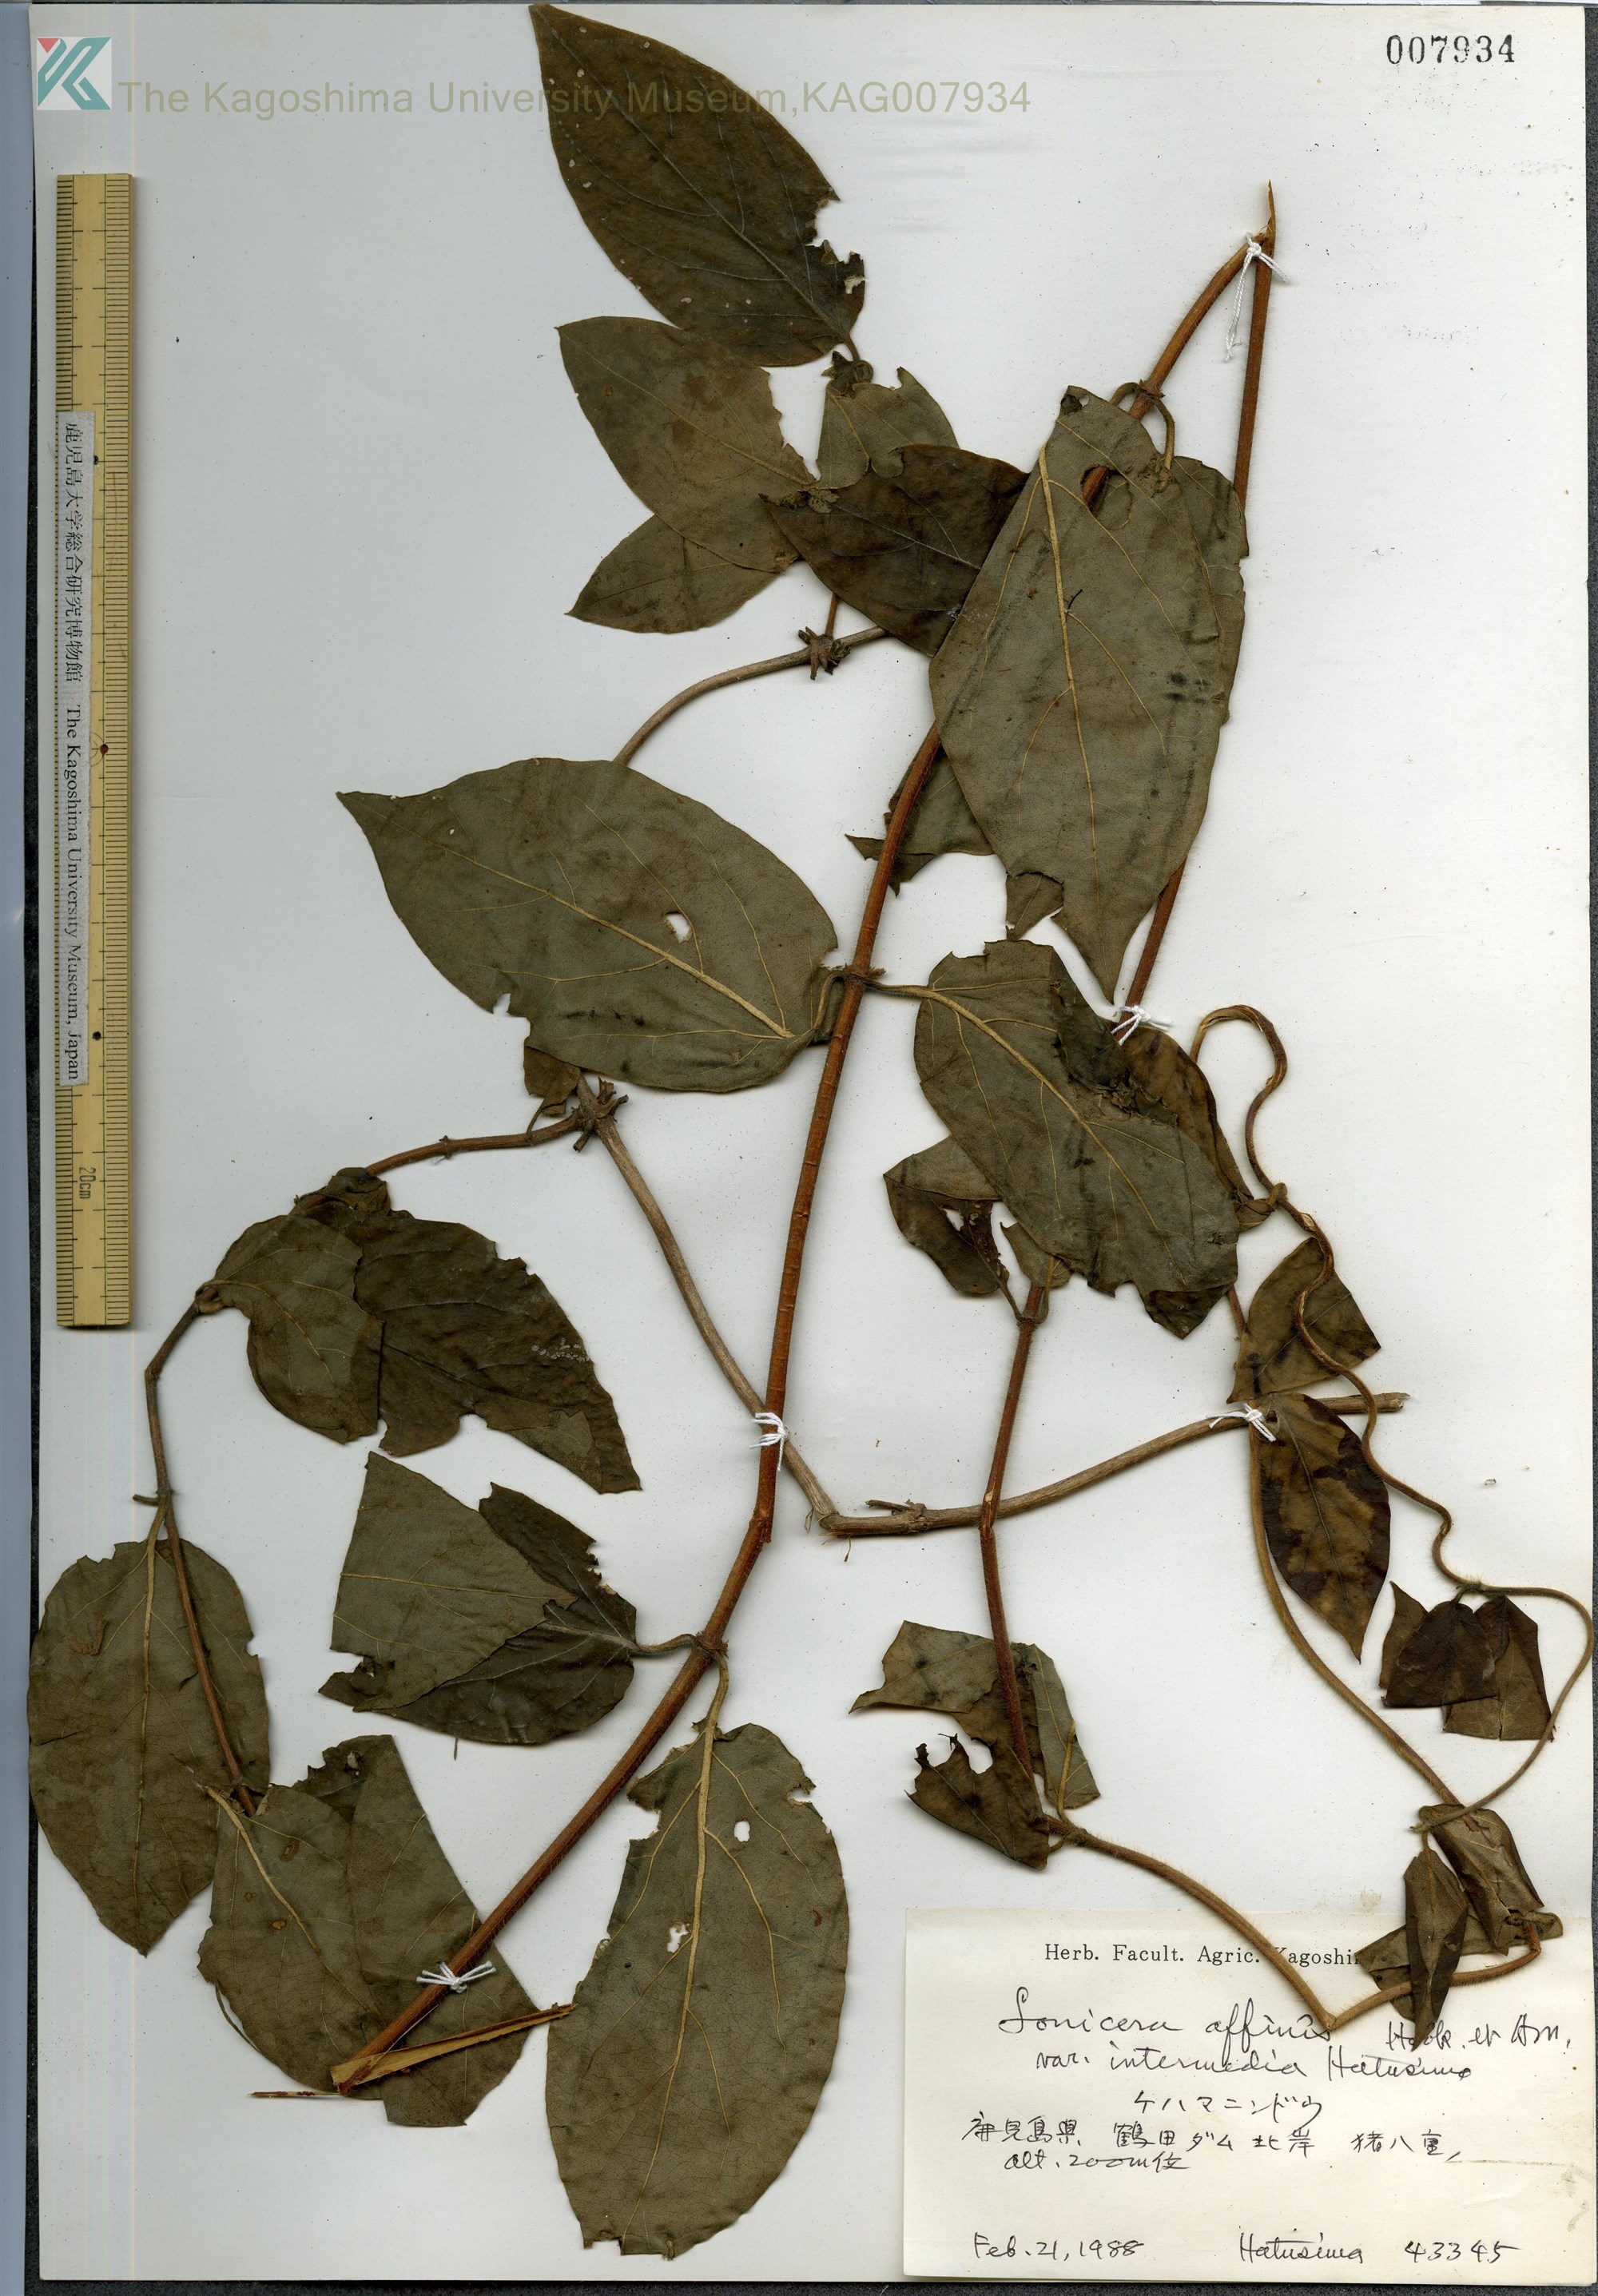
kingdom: Plantae
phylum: Tracheophyta
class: Magnoliopsida
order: Dipsacales
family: Caprifoliaceae
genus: Lonicera
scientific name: Lonicera affinis
